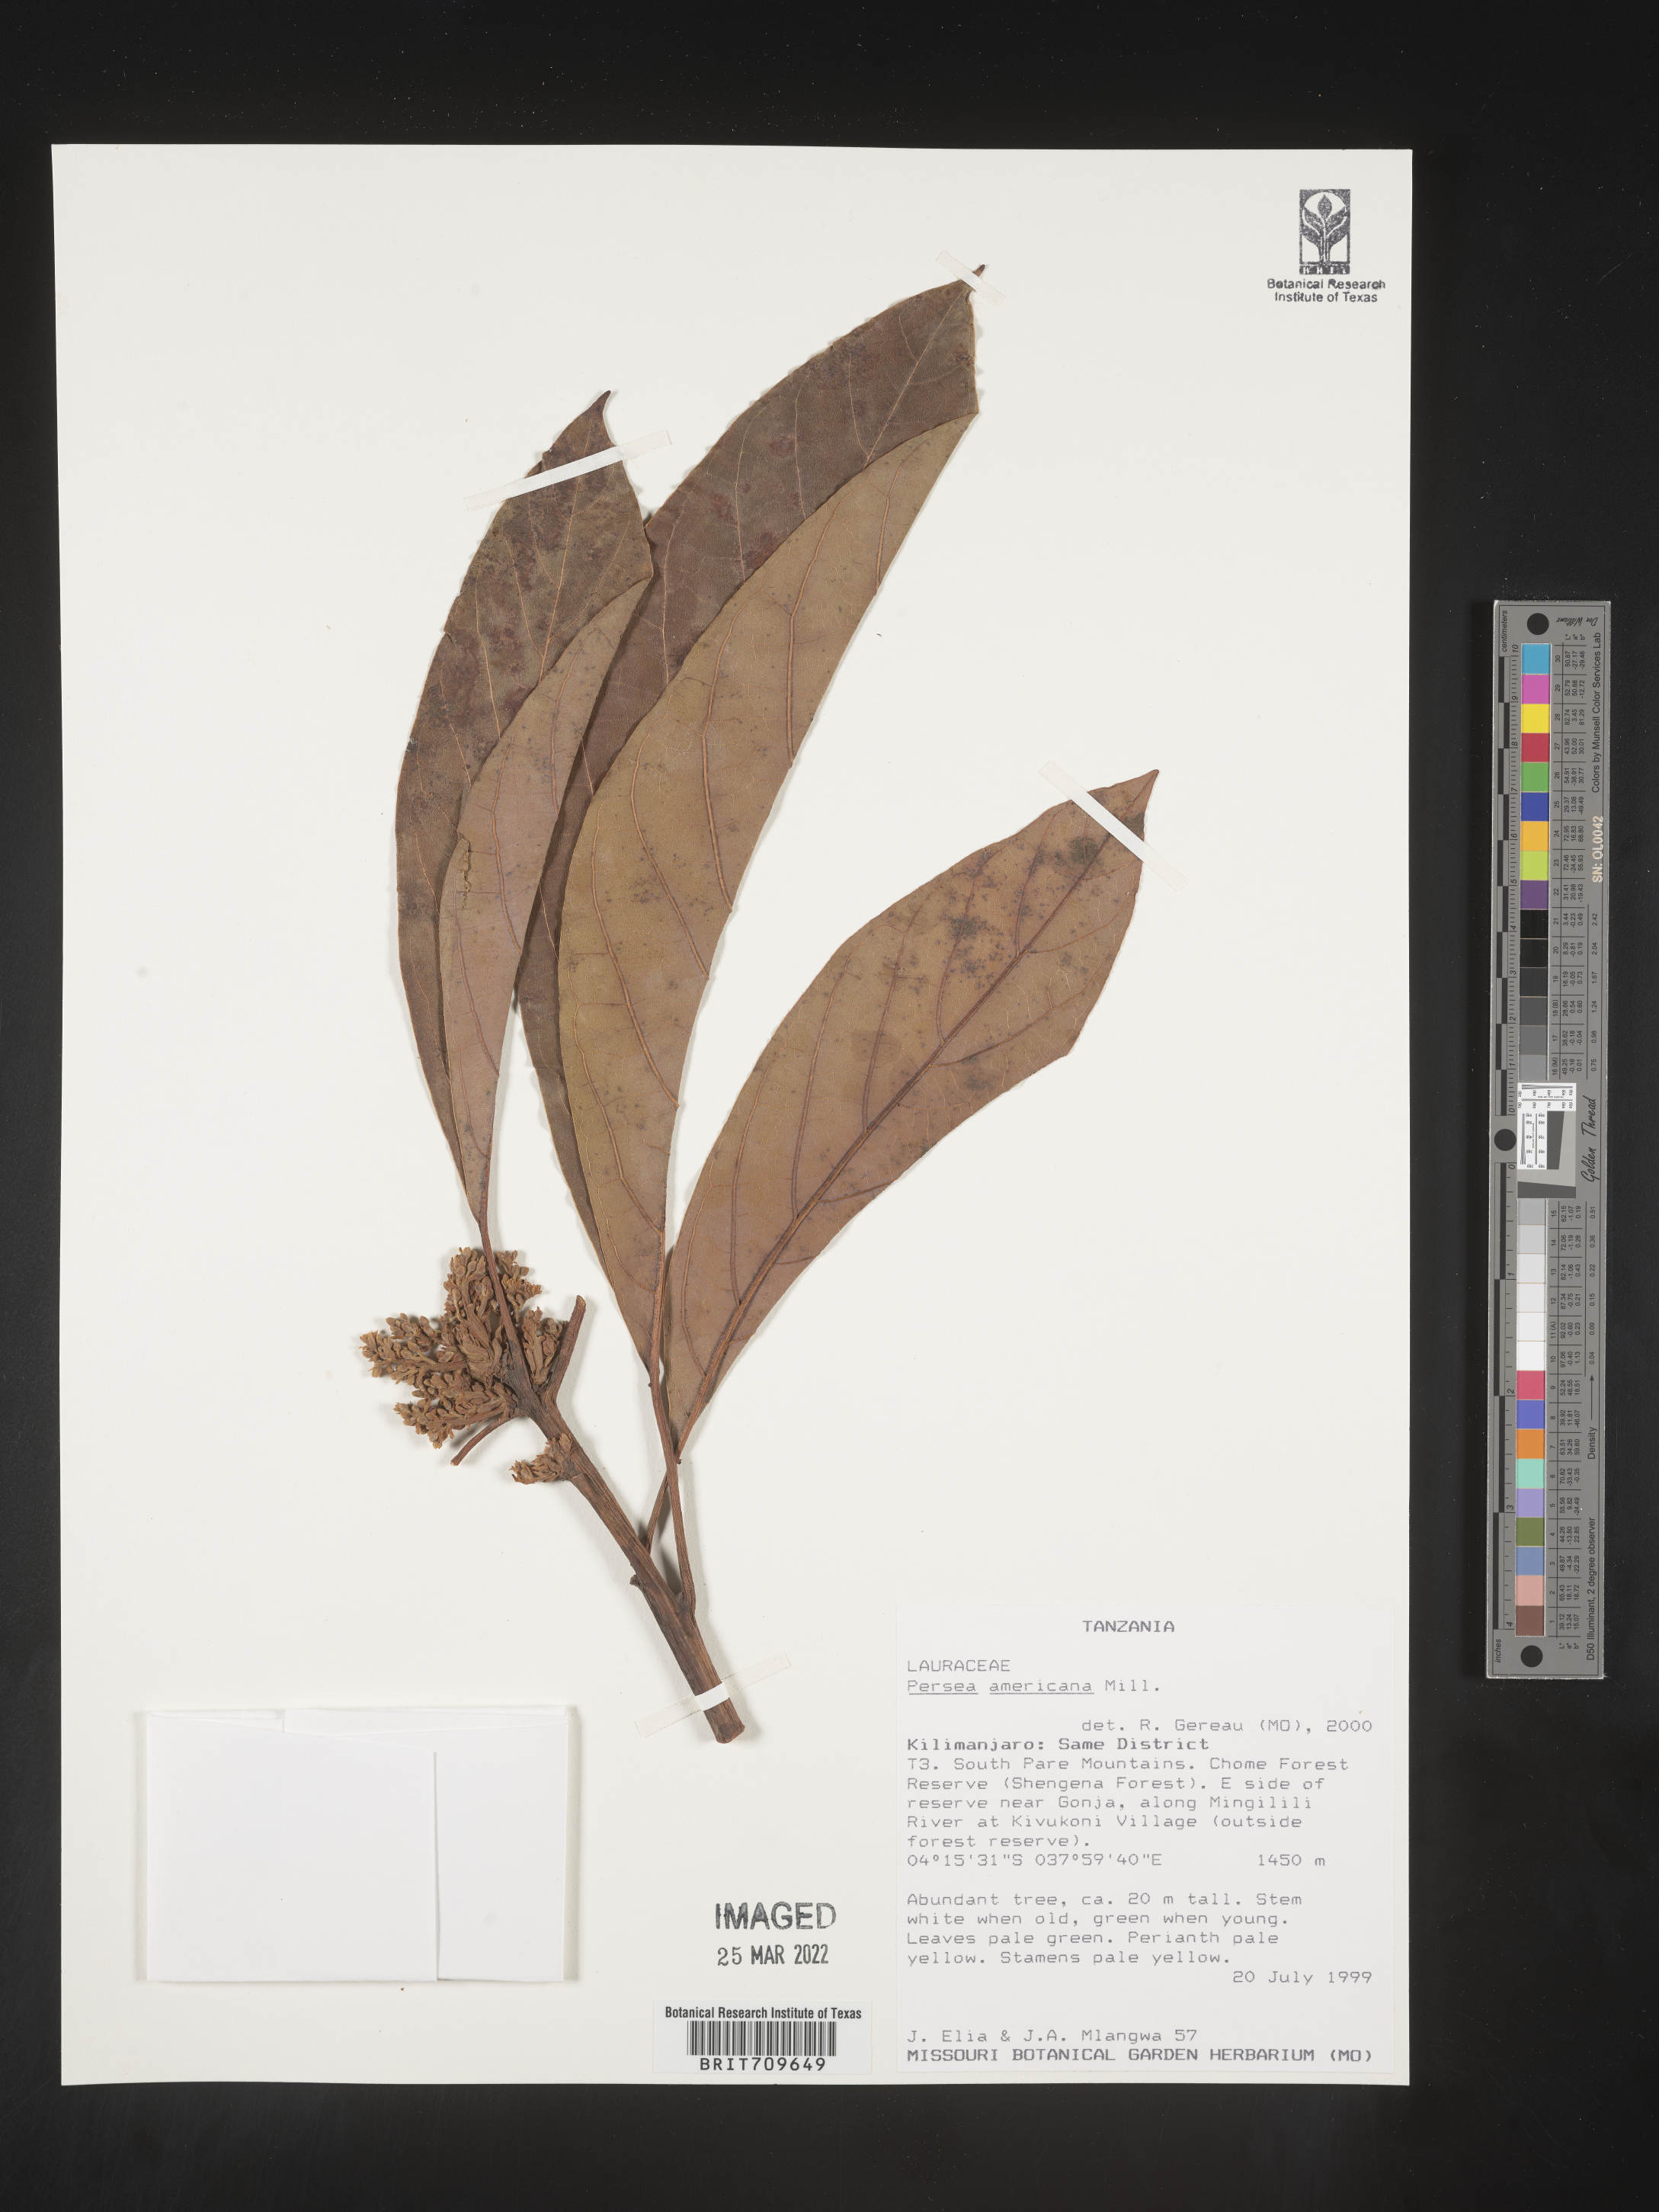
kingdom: Plantae
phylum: Tracheophyta
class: Magnoliopsida
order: Laurales
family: Lauraceae
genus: Persea
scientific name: Persea
